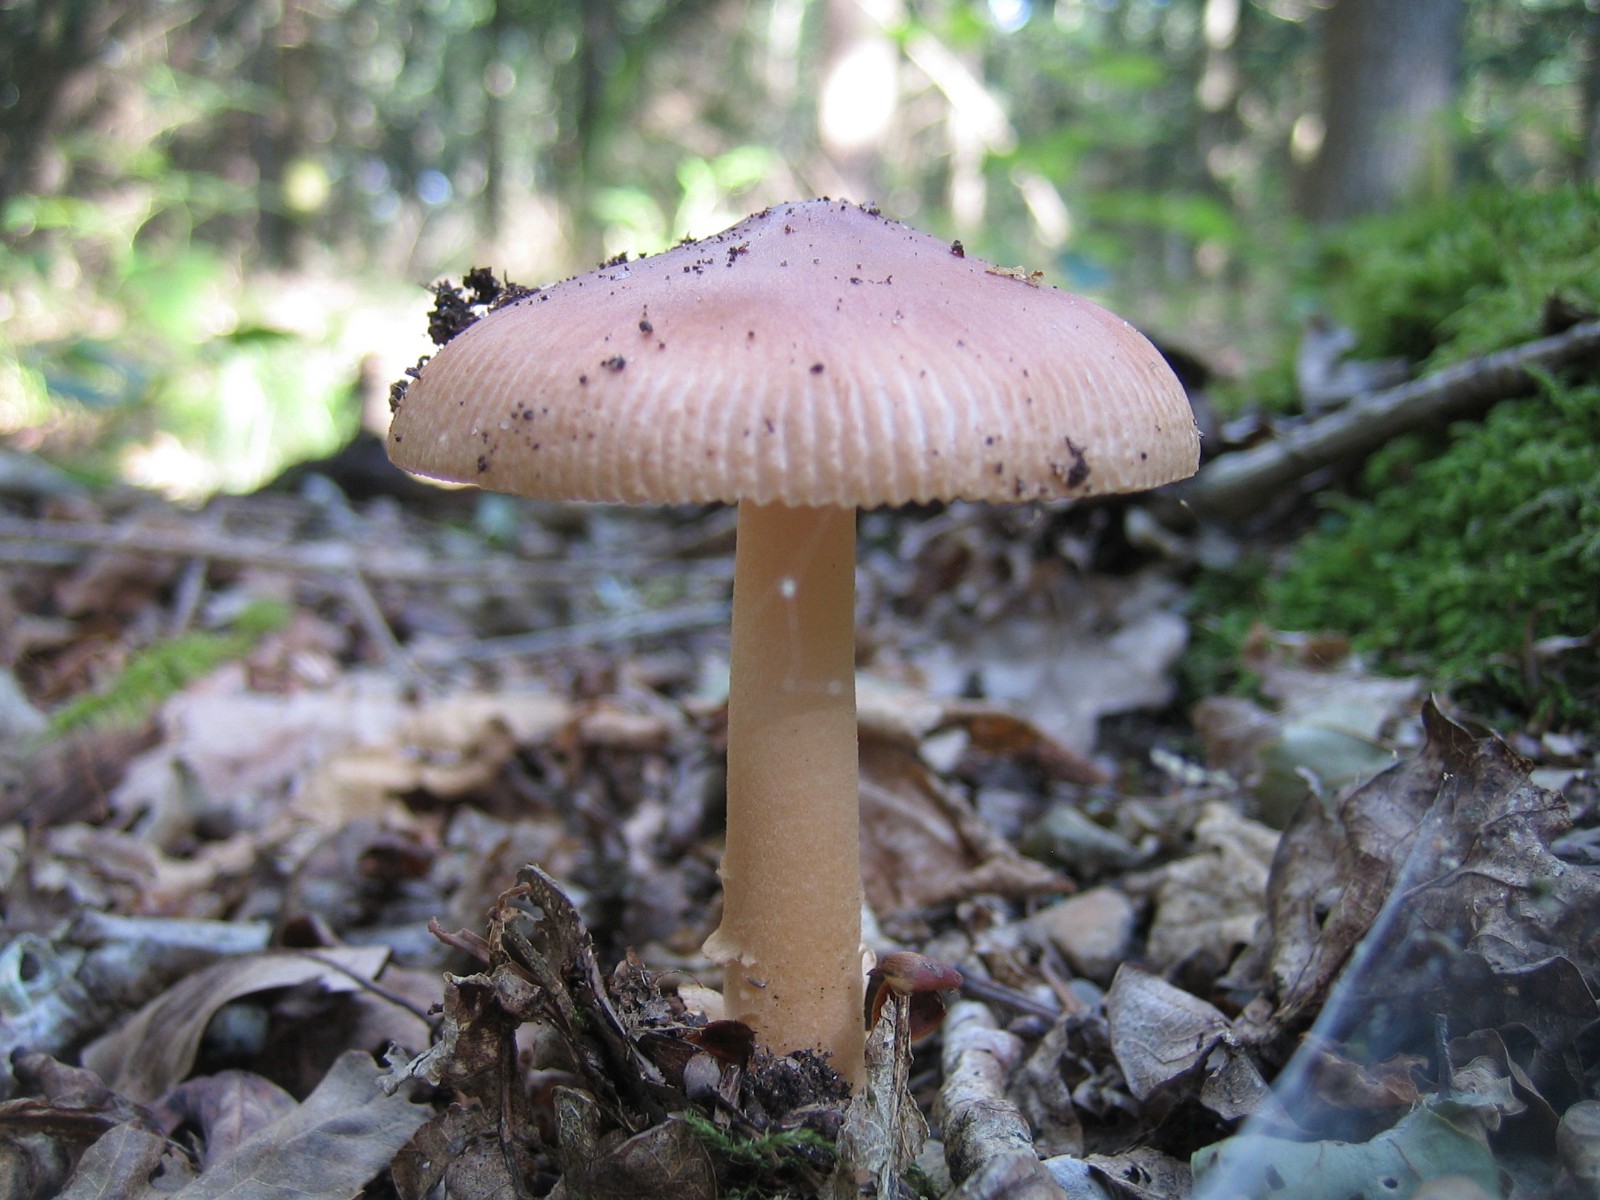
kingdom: Fungi
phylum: Basidiomycota
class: Agaricomycetes
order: Agaricales
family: Amanitaceae
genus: Amanita
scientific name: Amanita fulva
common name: brun kam-fluesvamp
